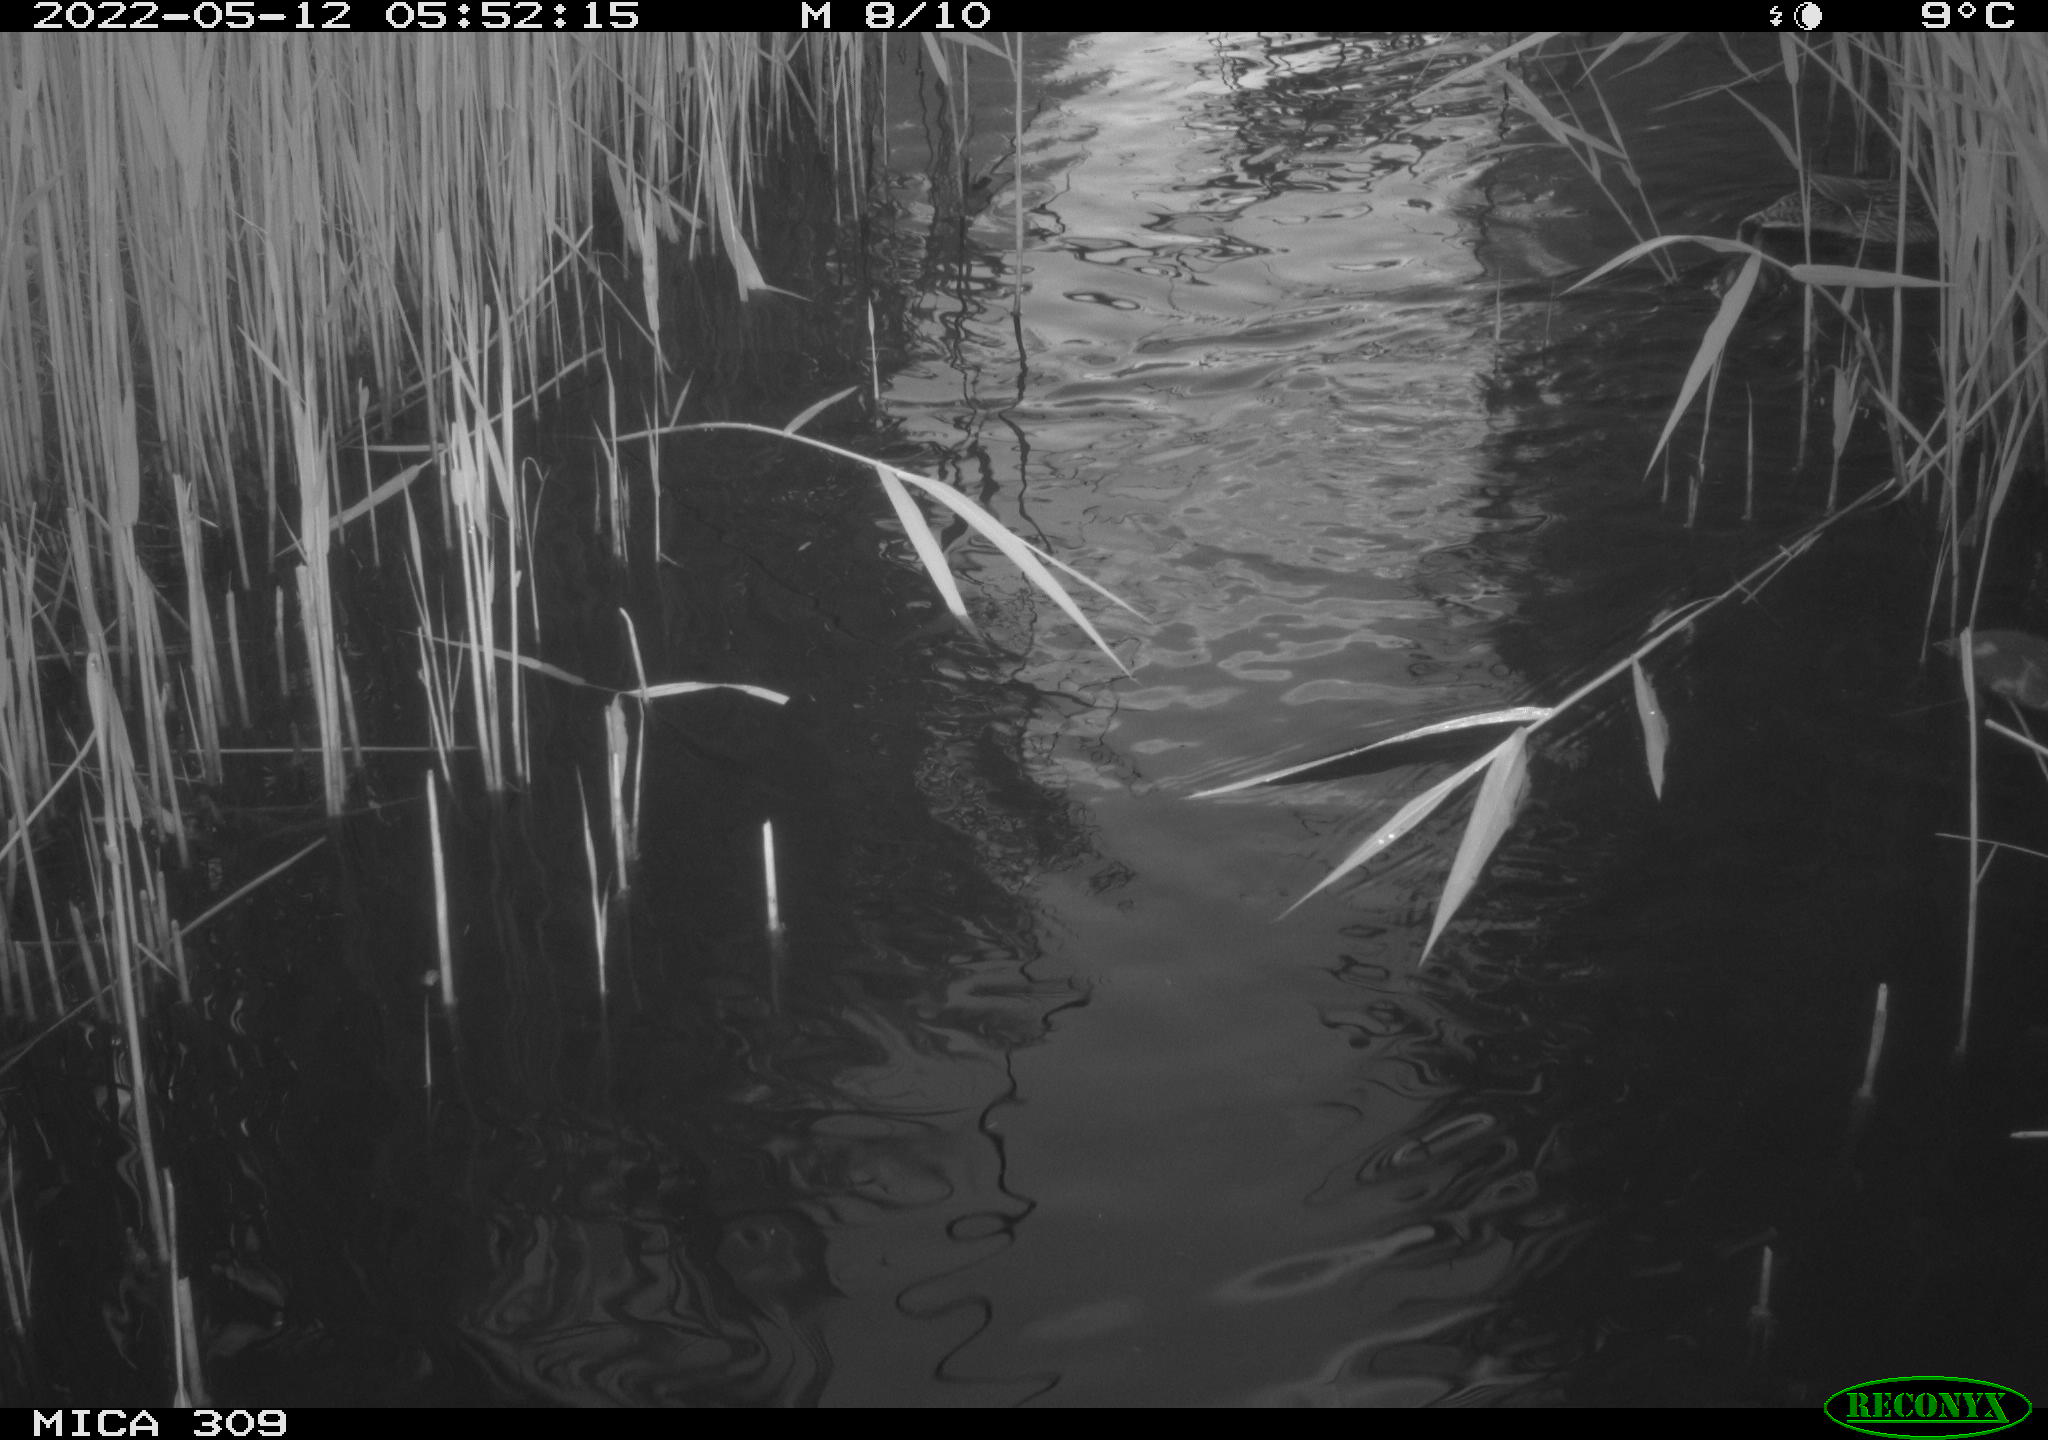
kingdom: Animalia
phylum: Chordata
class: Aves
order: Anseriformes
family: Anatidae
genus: Mareca
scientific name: Mareca strepera
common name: Gadwall
